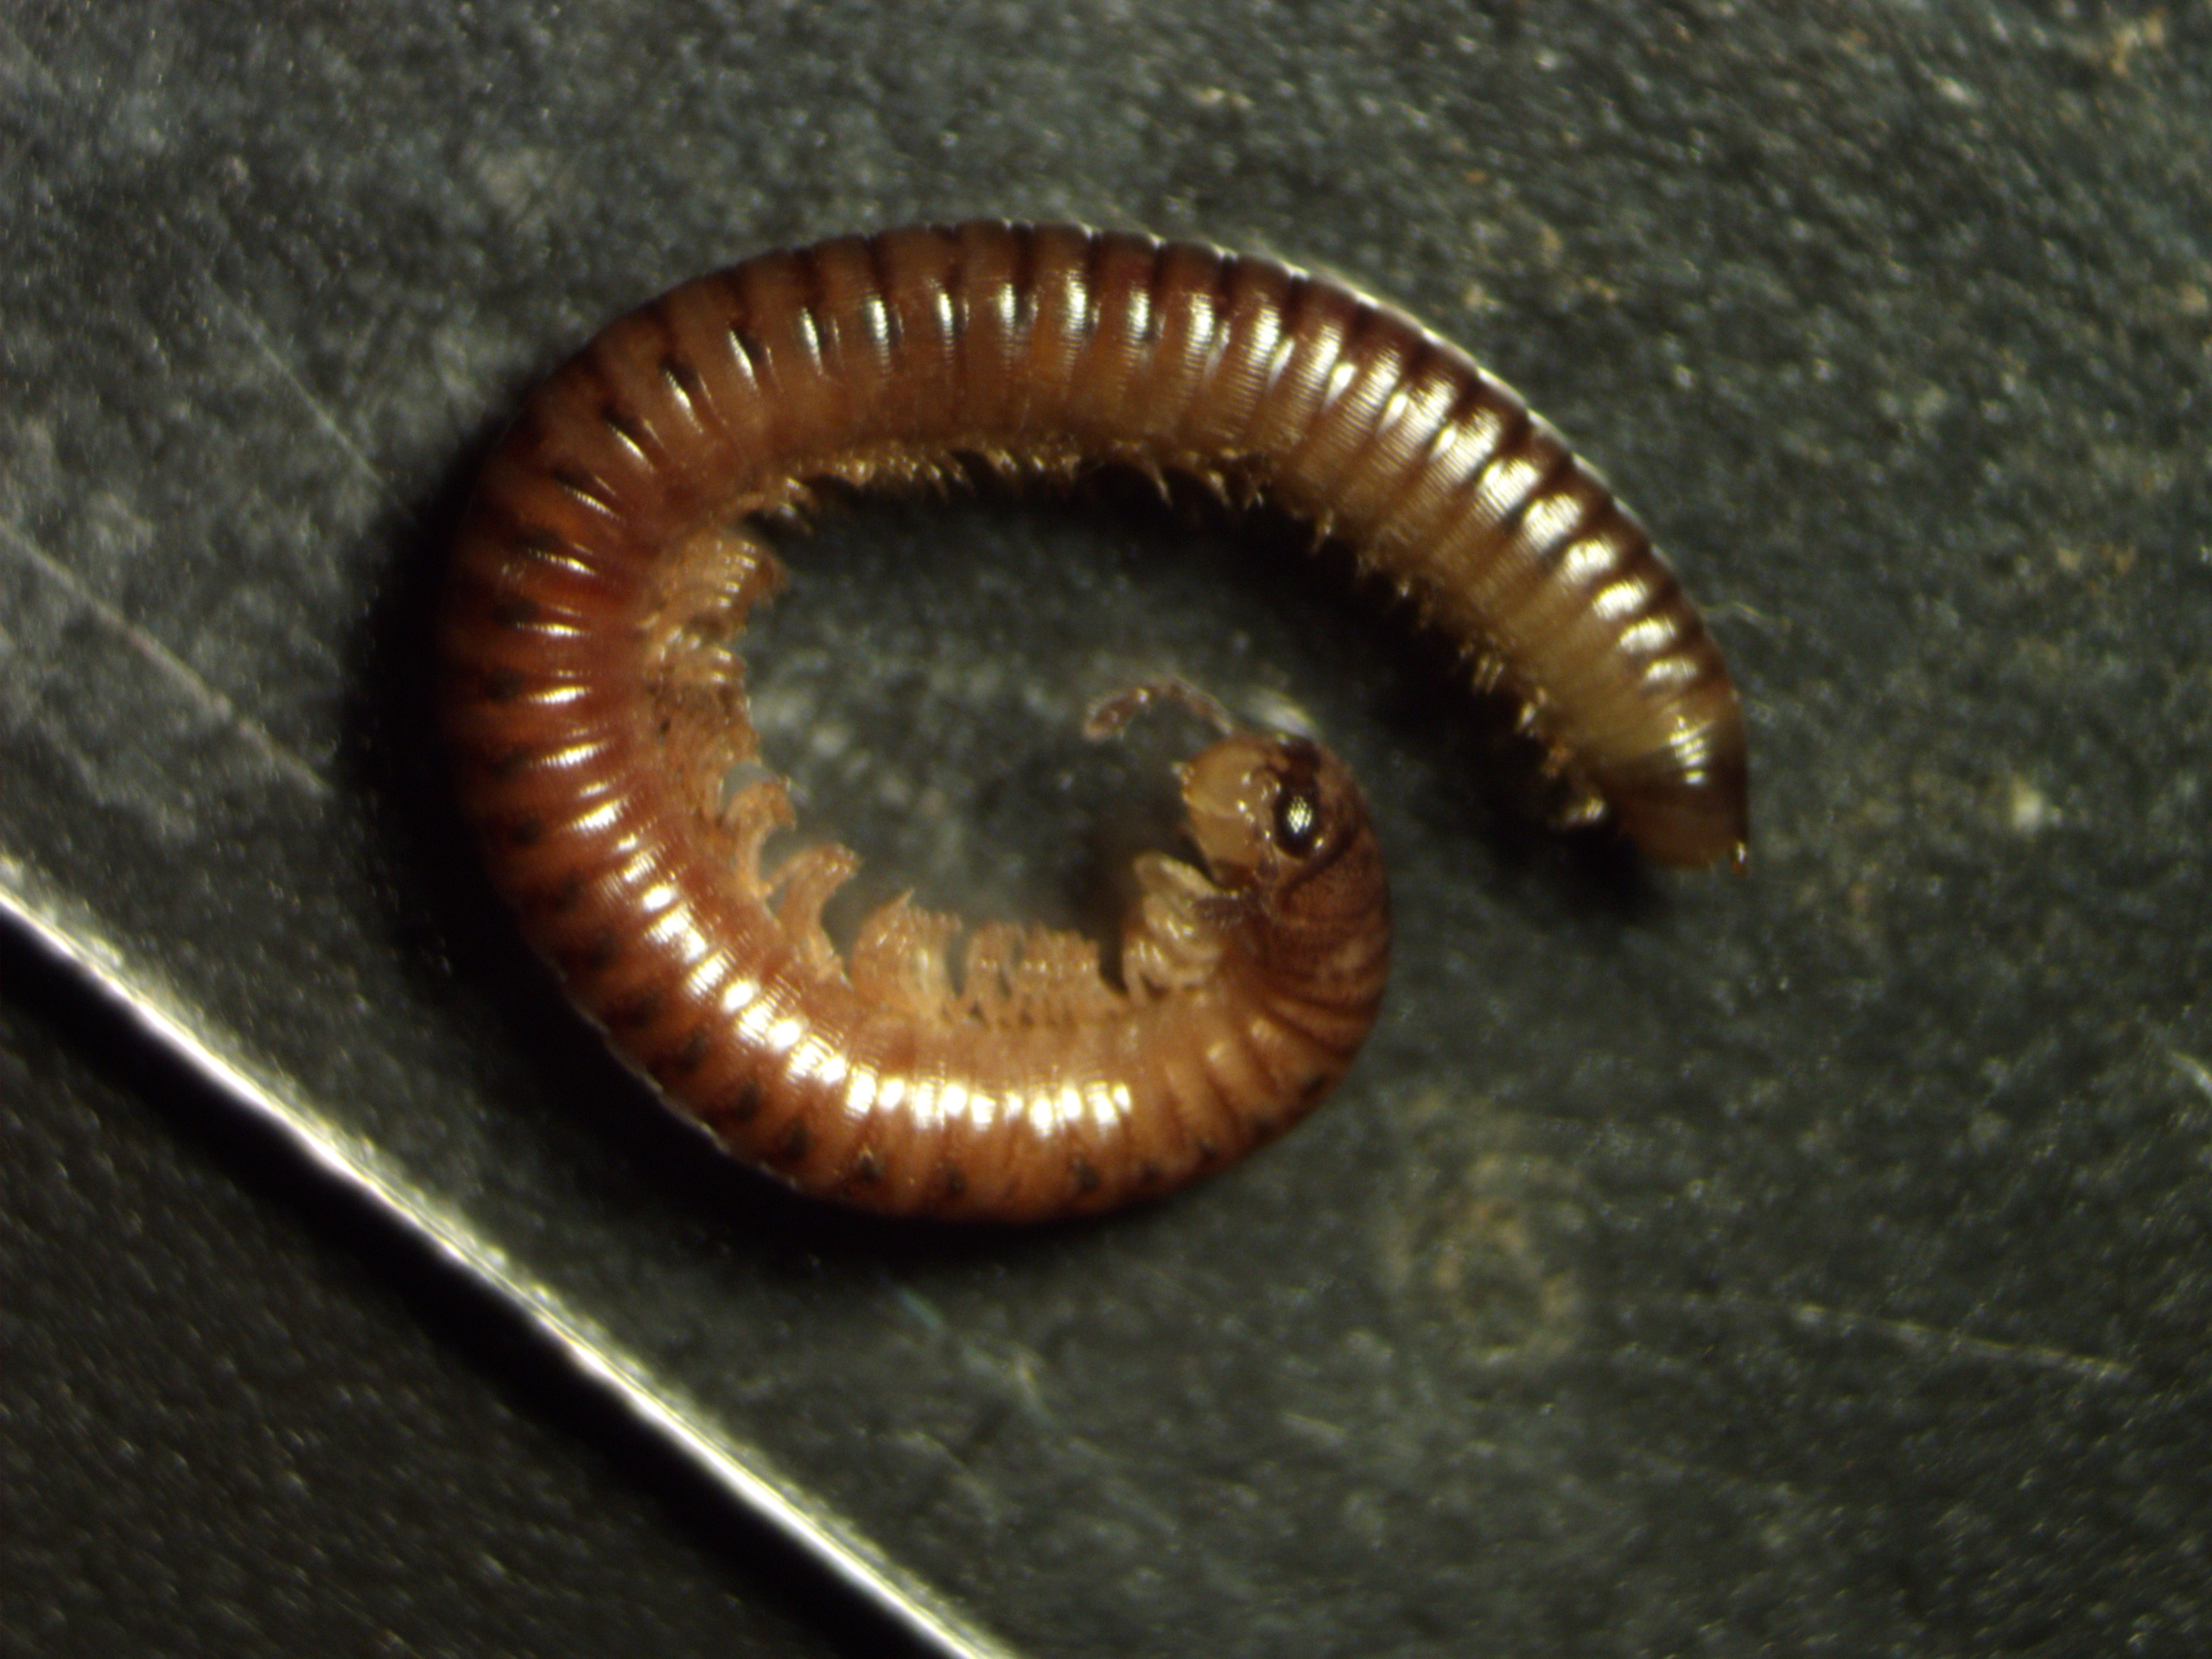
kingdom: Animalia
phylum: Arthropoda
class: Diplopoda
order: Julida
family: Julidae
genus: Cylindroiulus
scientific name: Cylindroiulus punctatus
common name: Træcylindertusindben
